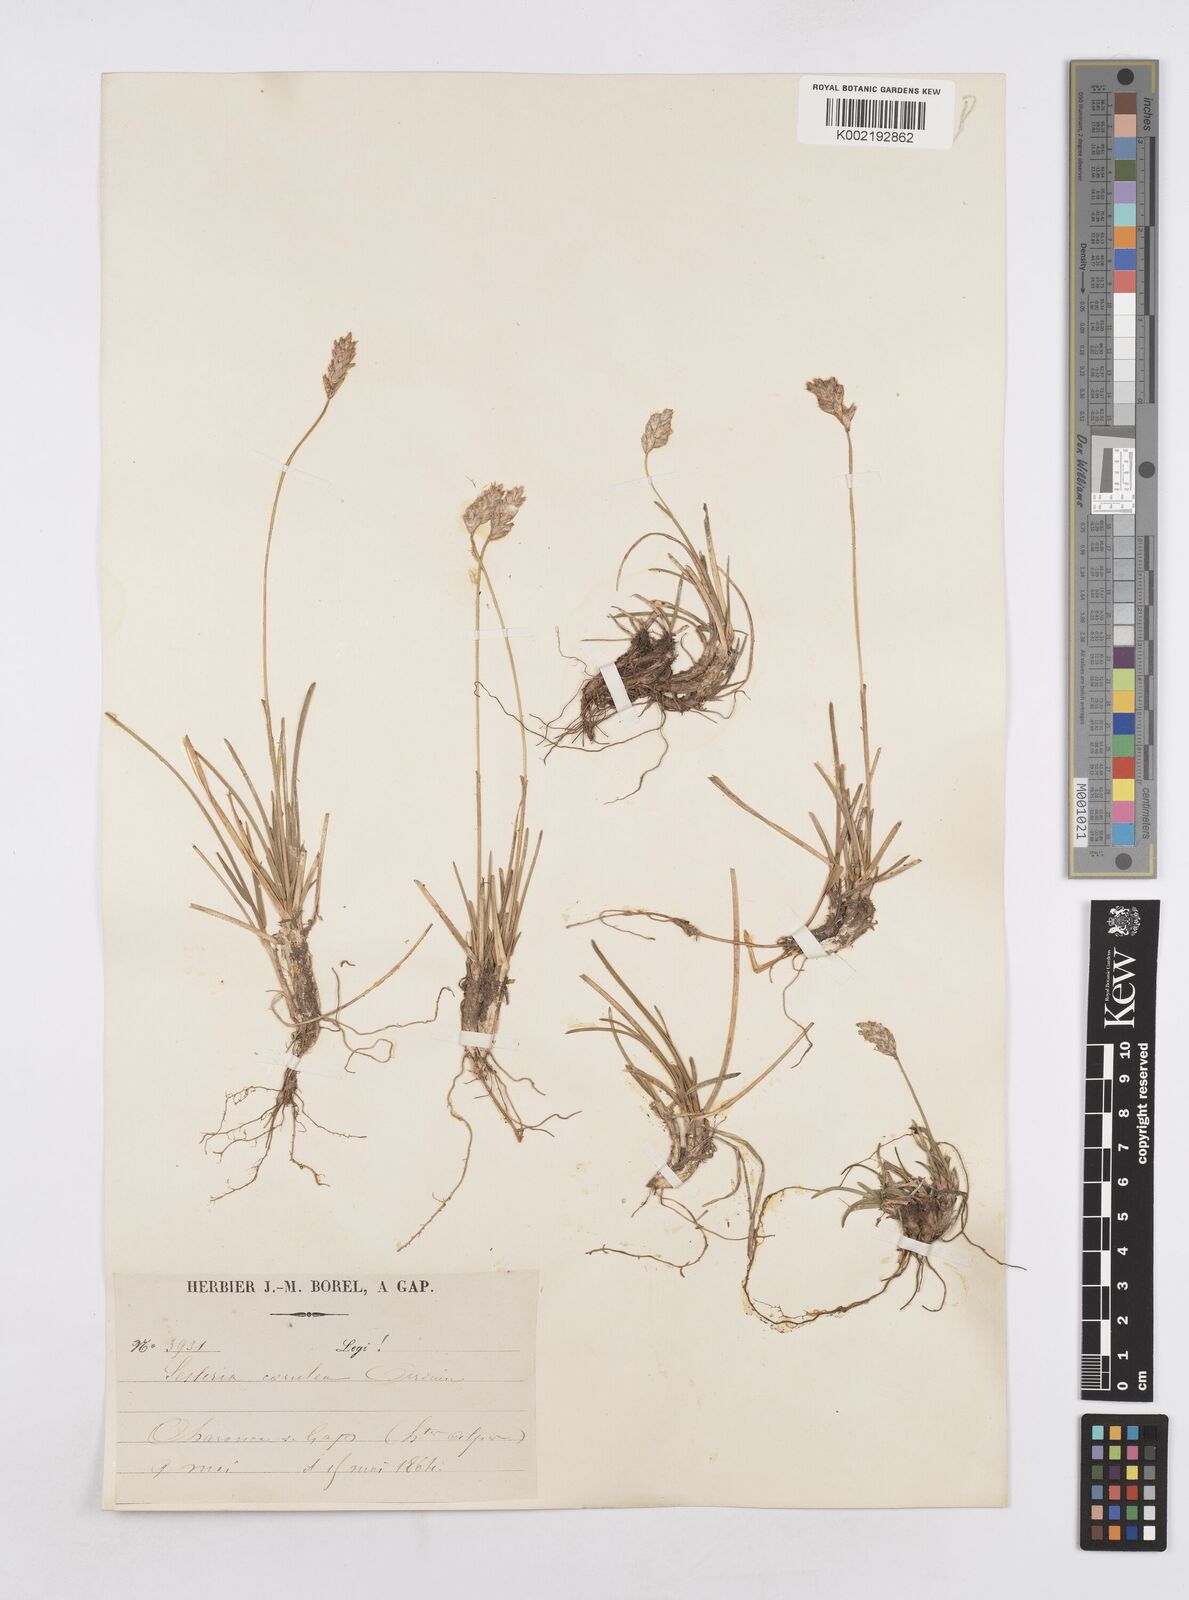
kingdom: Plantae
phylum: Tracheophyta
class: Liliopsida
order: Poales
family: Poaceae
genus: Sesleria
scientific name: Sesleria albicans
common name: Blue moor-grass
